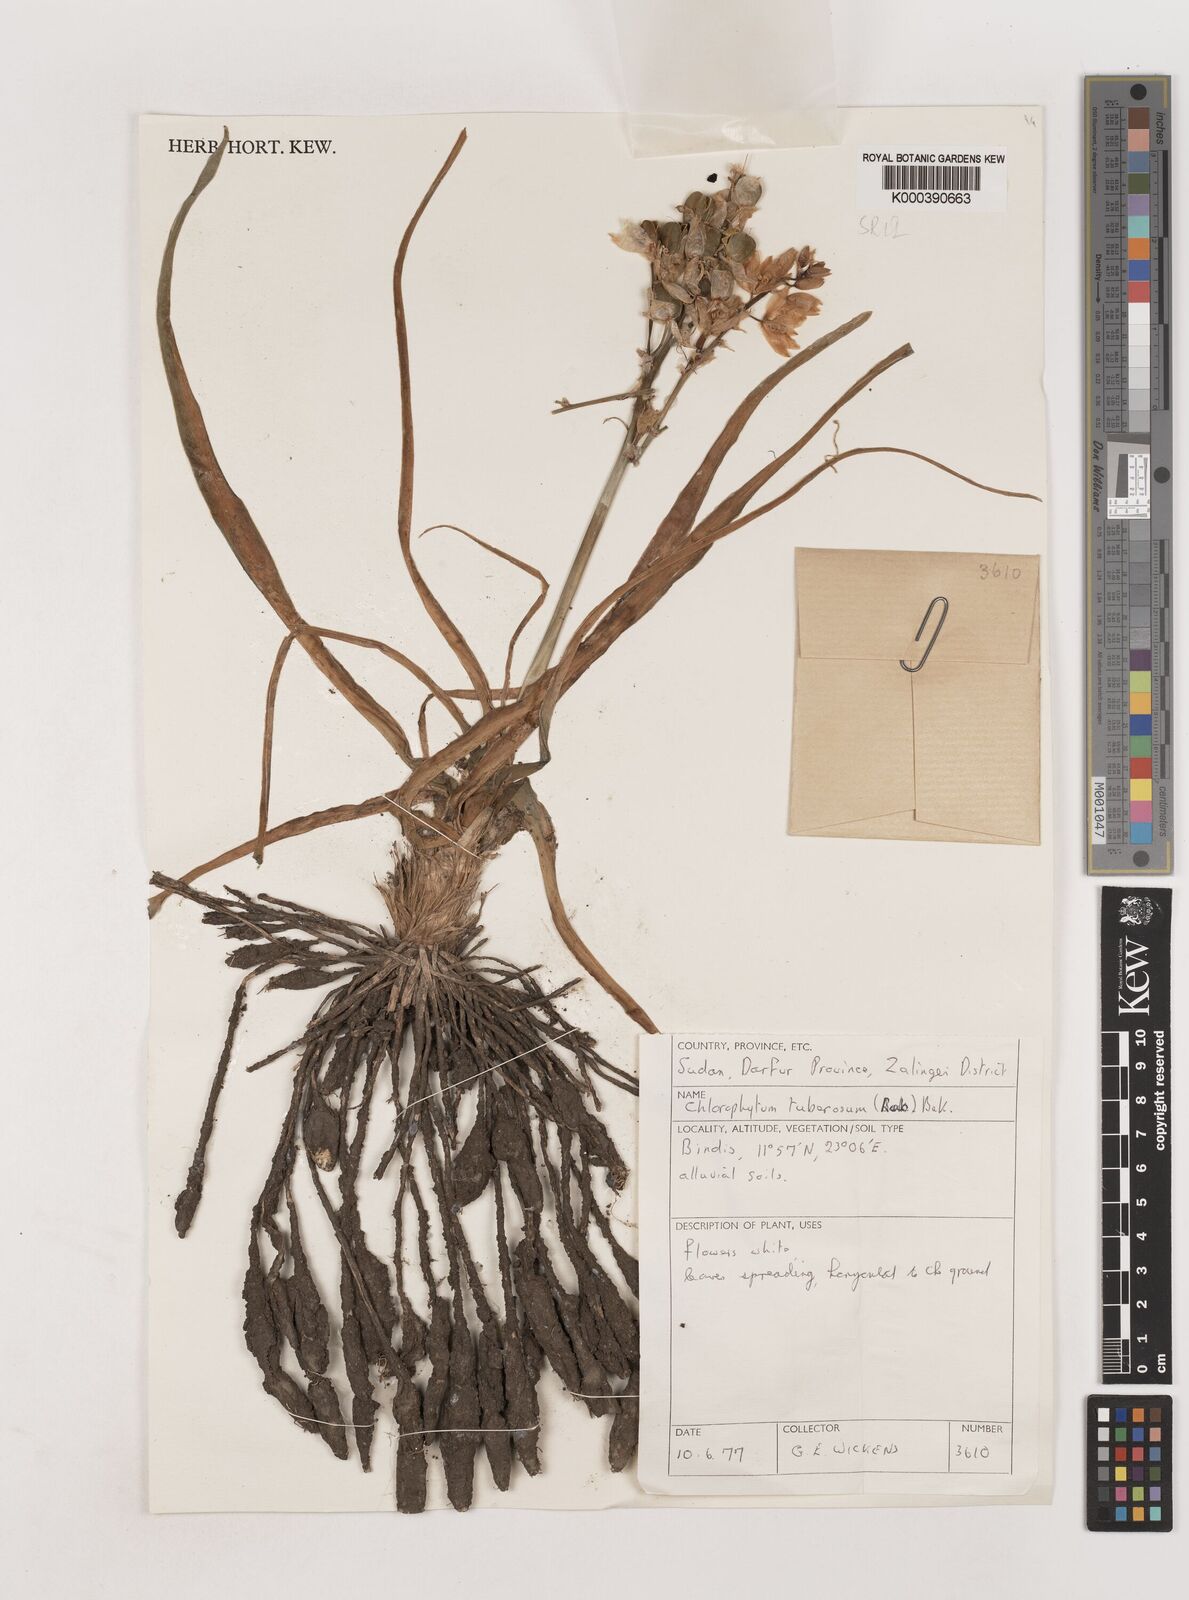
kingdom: Plantae
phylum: Tracheophyta
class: Liliopsida
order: Asparagales
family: Asparagaceae
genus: Chlorophytum
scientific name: Chlorophytum tuberosum
